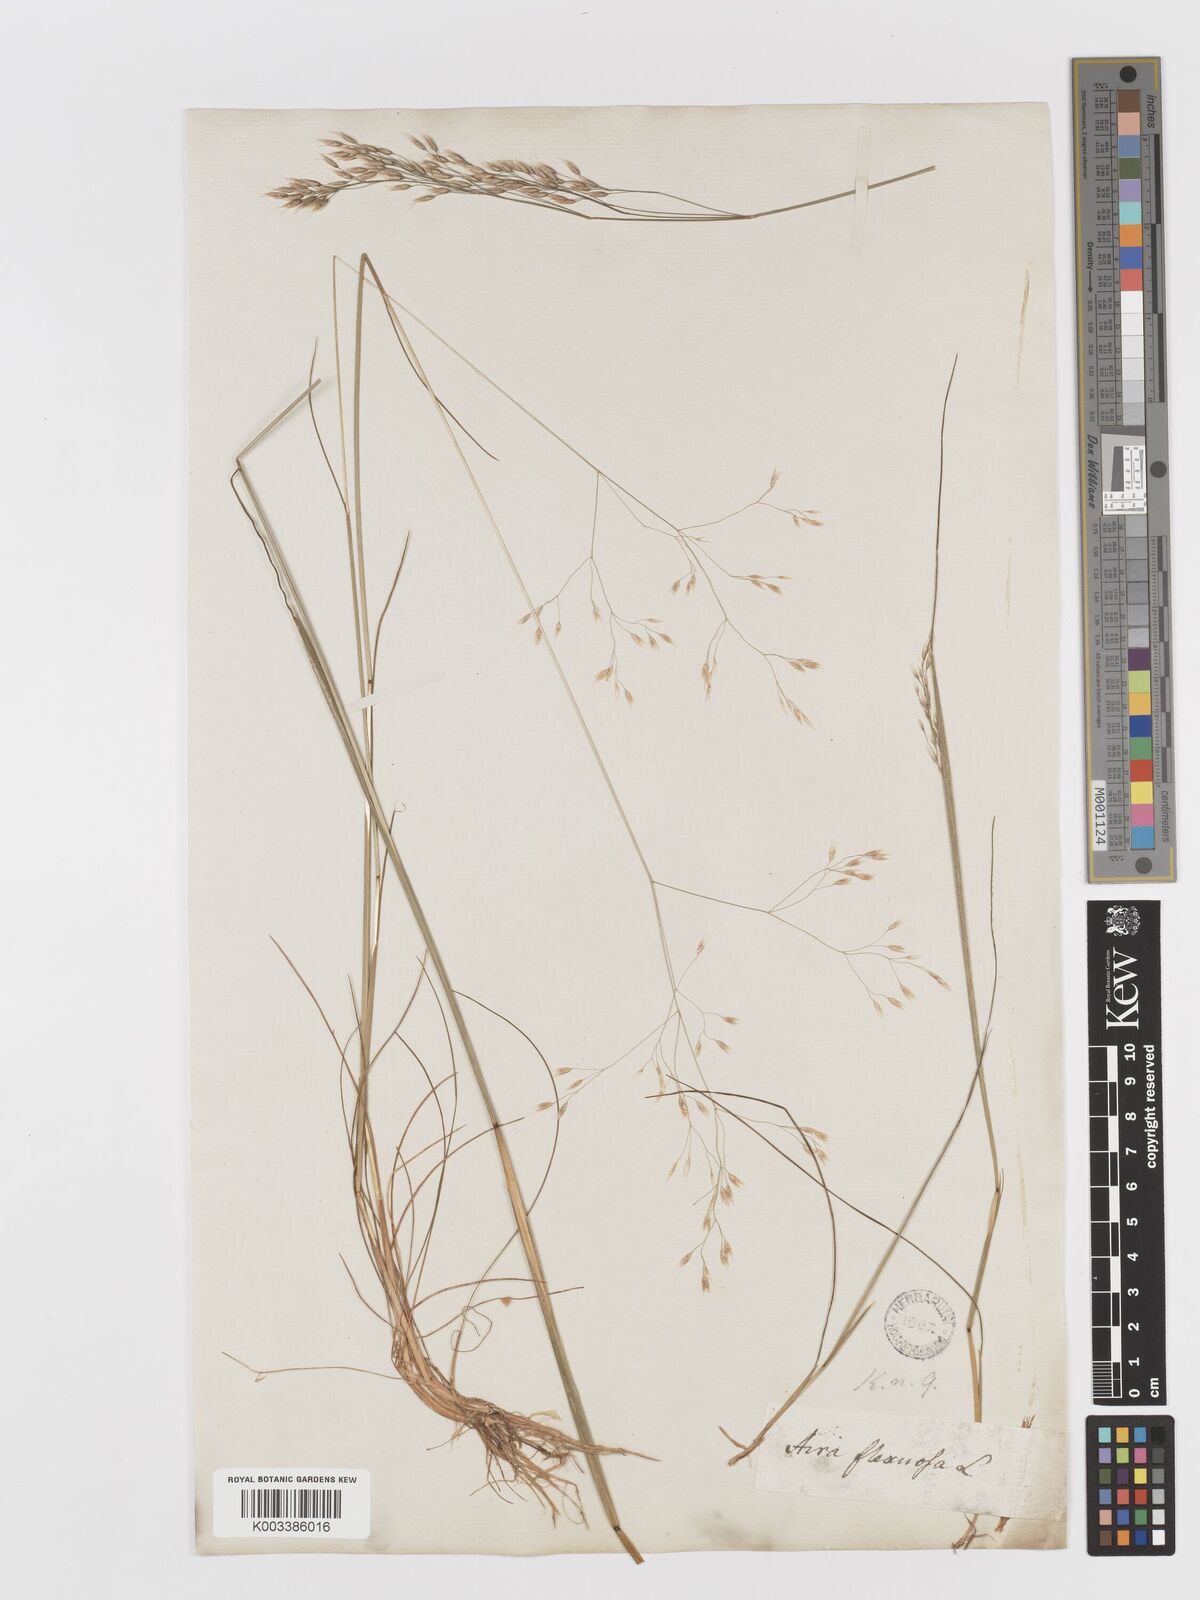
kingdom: Plantae
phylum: Tracheophyta
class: Liliopsida
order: Poales
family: Poaceae
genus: Avenella
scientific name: Avenella flexuosa
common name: Wavy hairgrass
